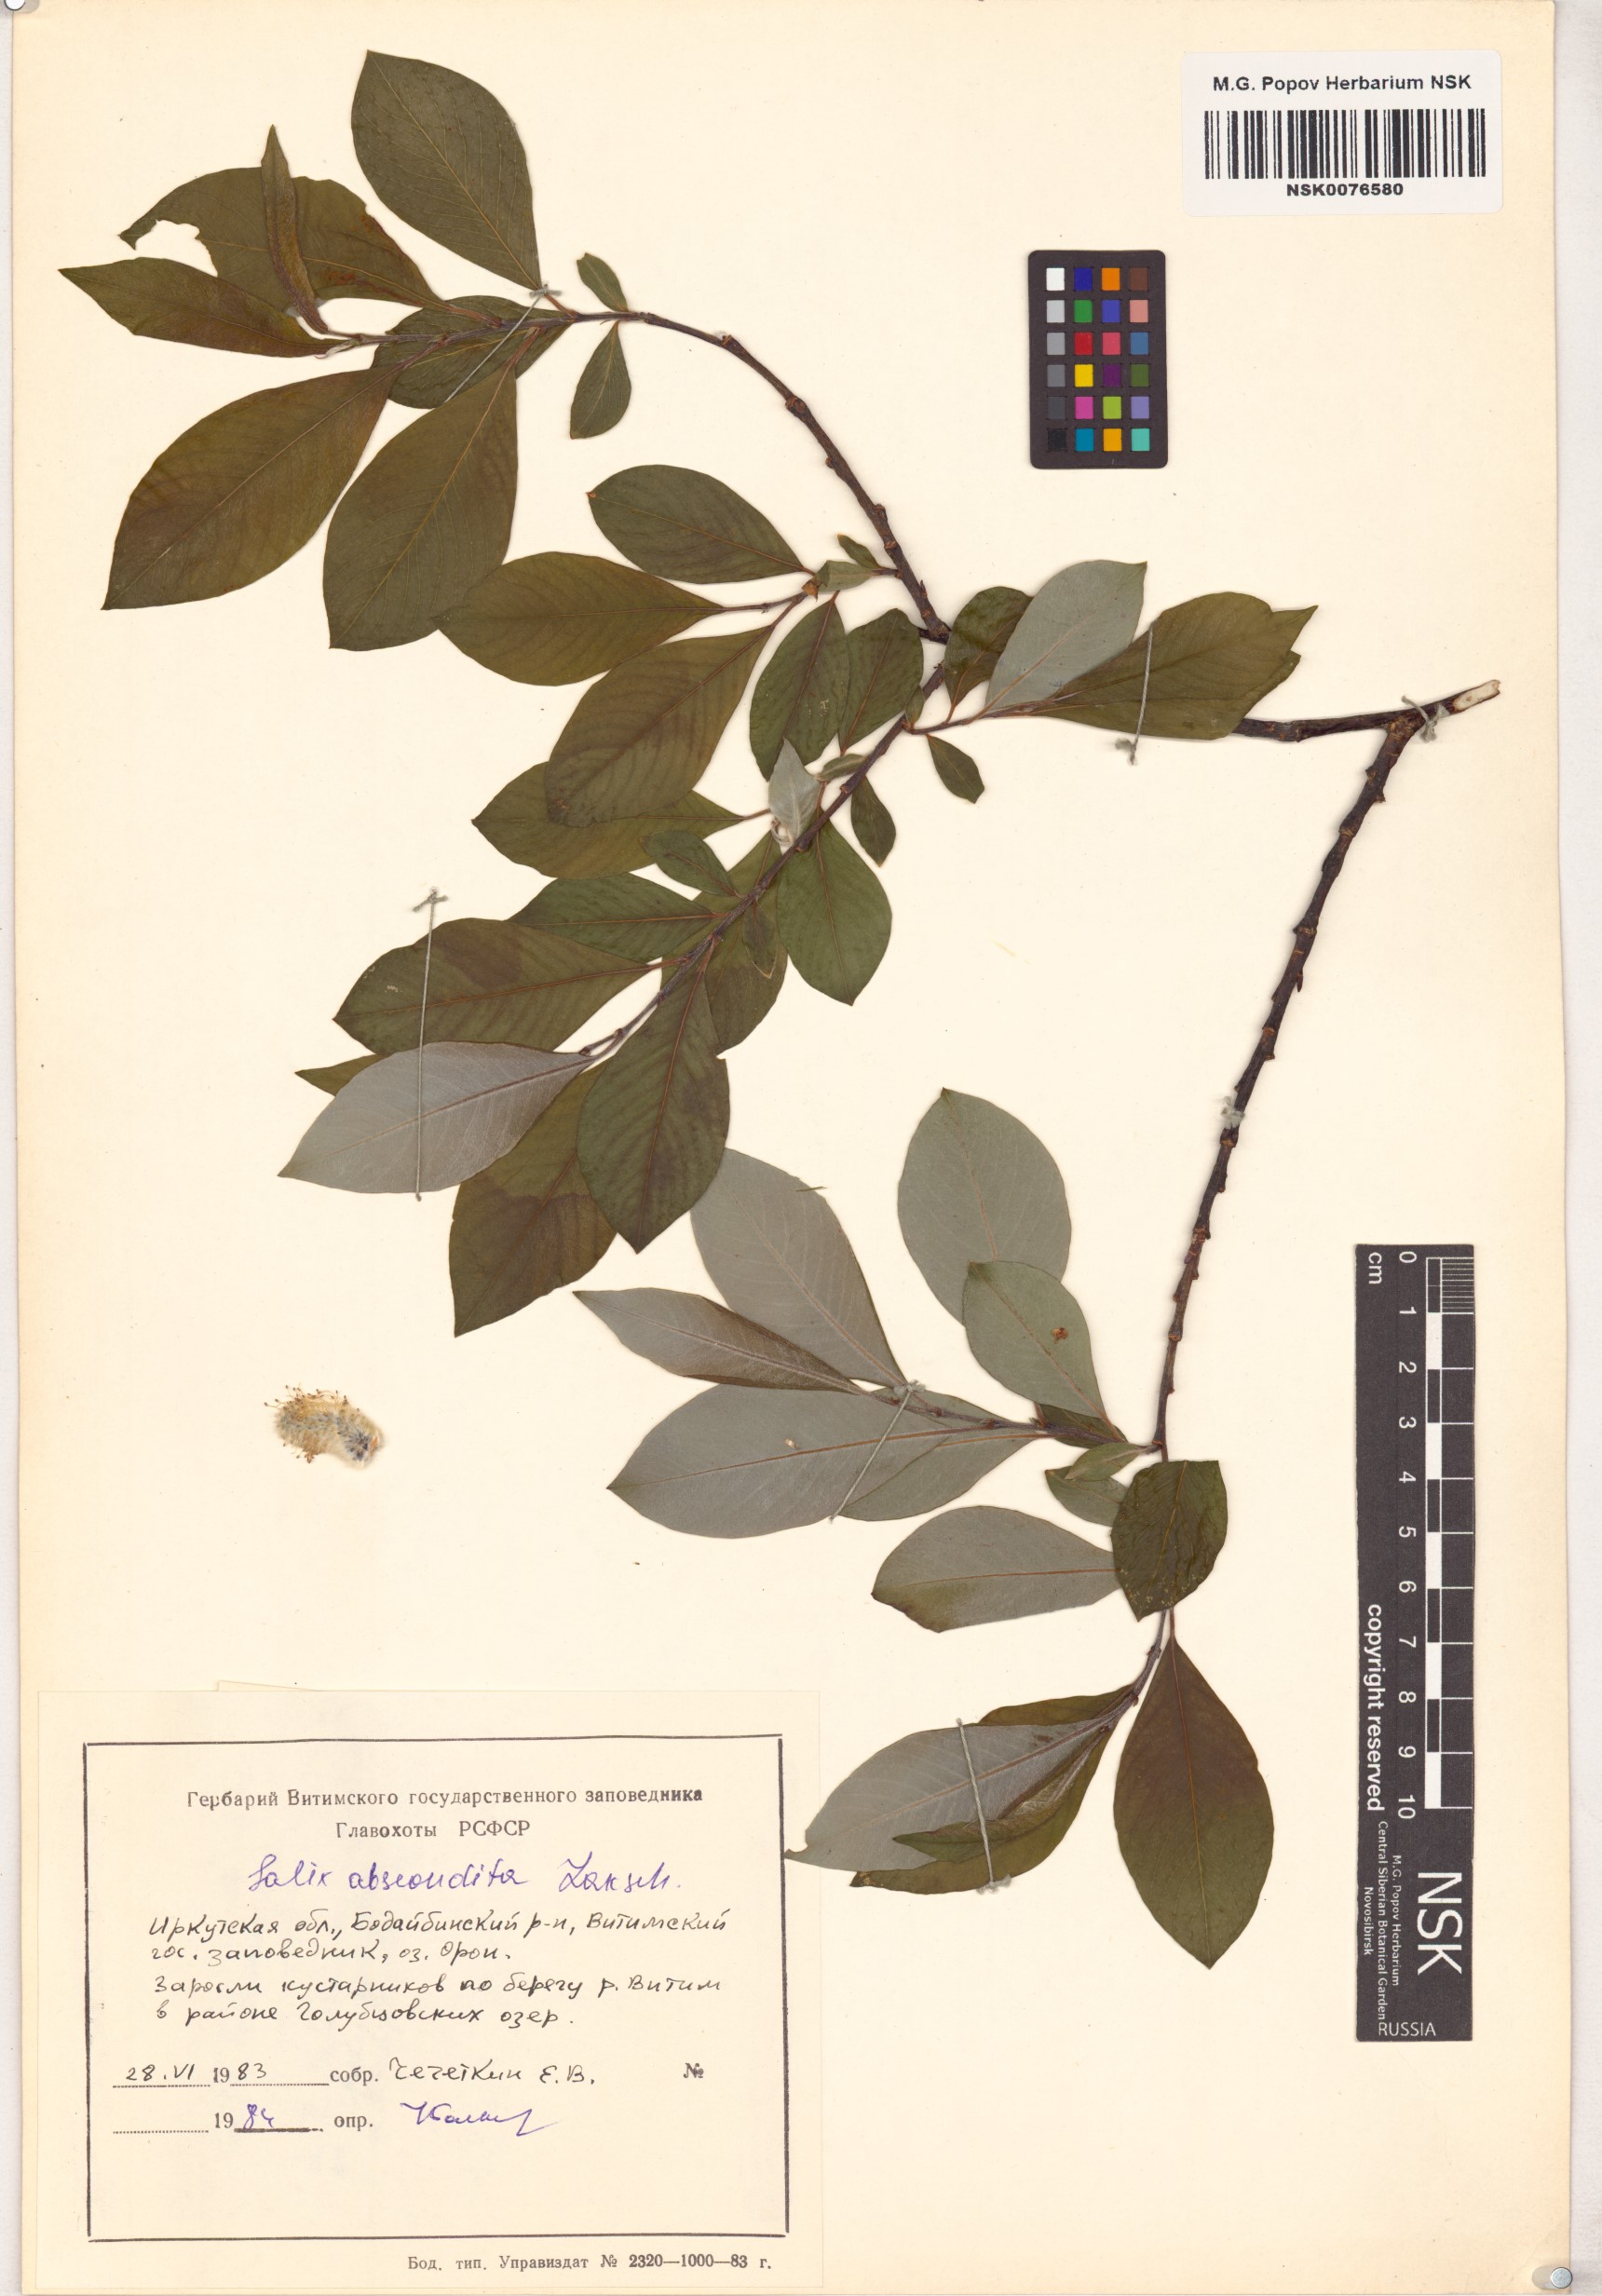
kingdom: Plantae
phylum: Tracheophyta
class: Magnoliopsida
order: Malpighiales
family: Salicaceae
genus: Salix
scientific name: Salix abscondita
